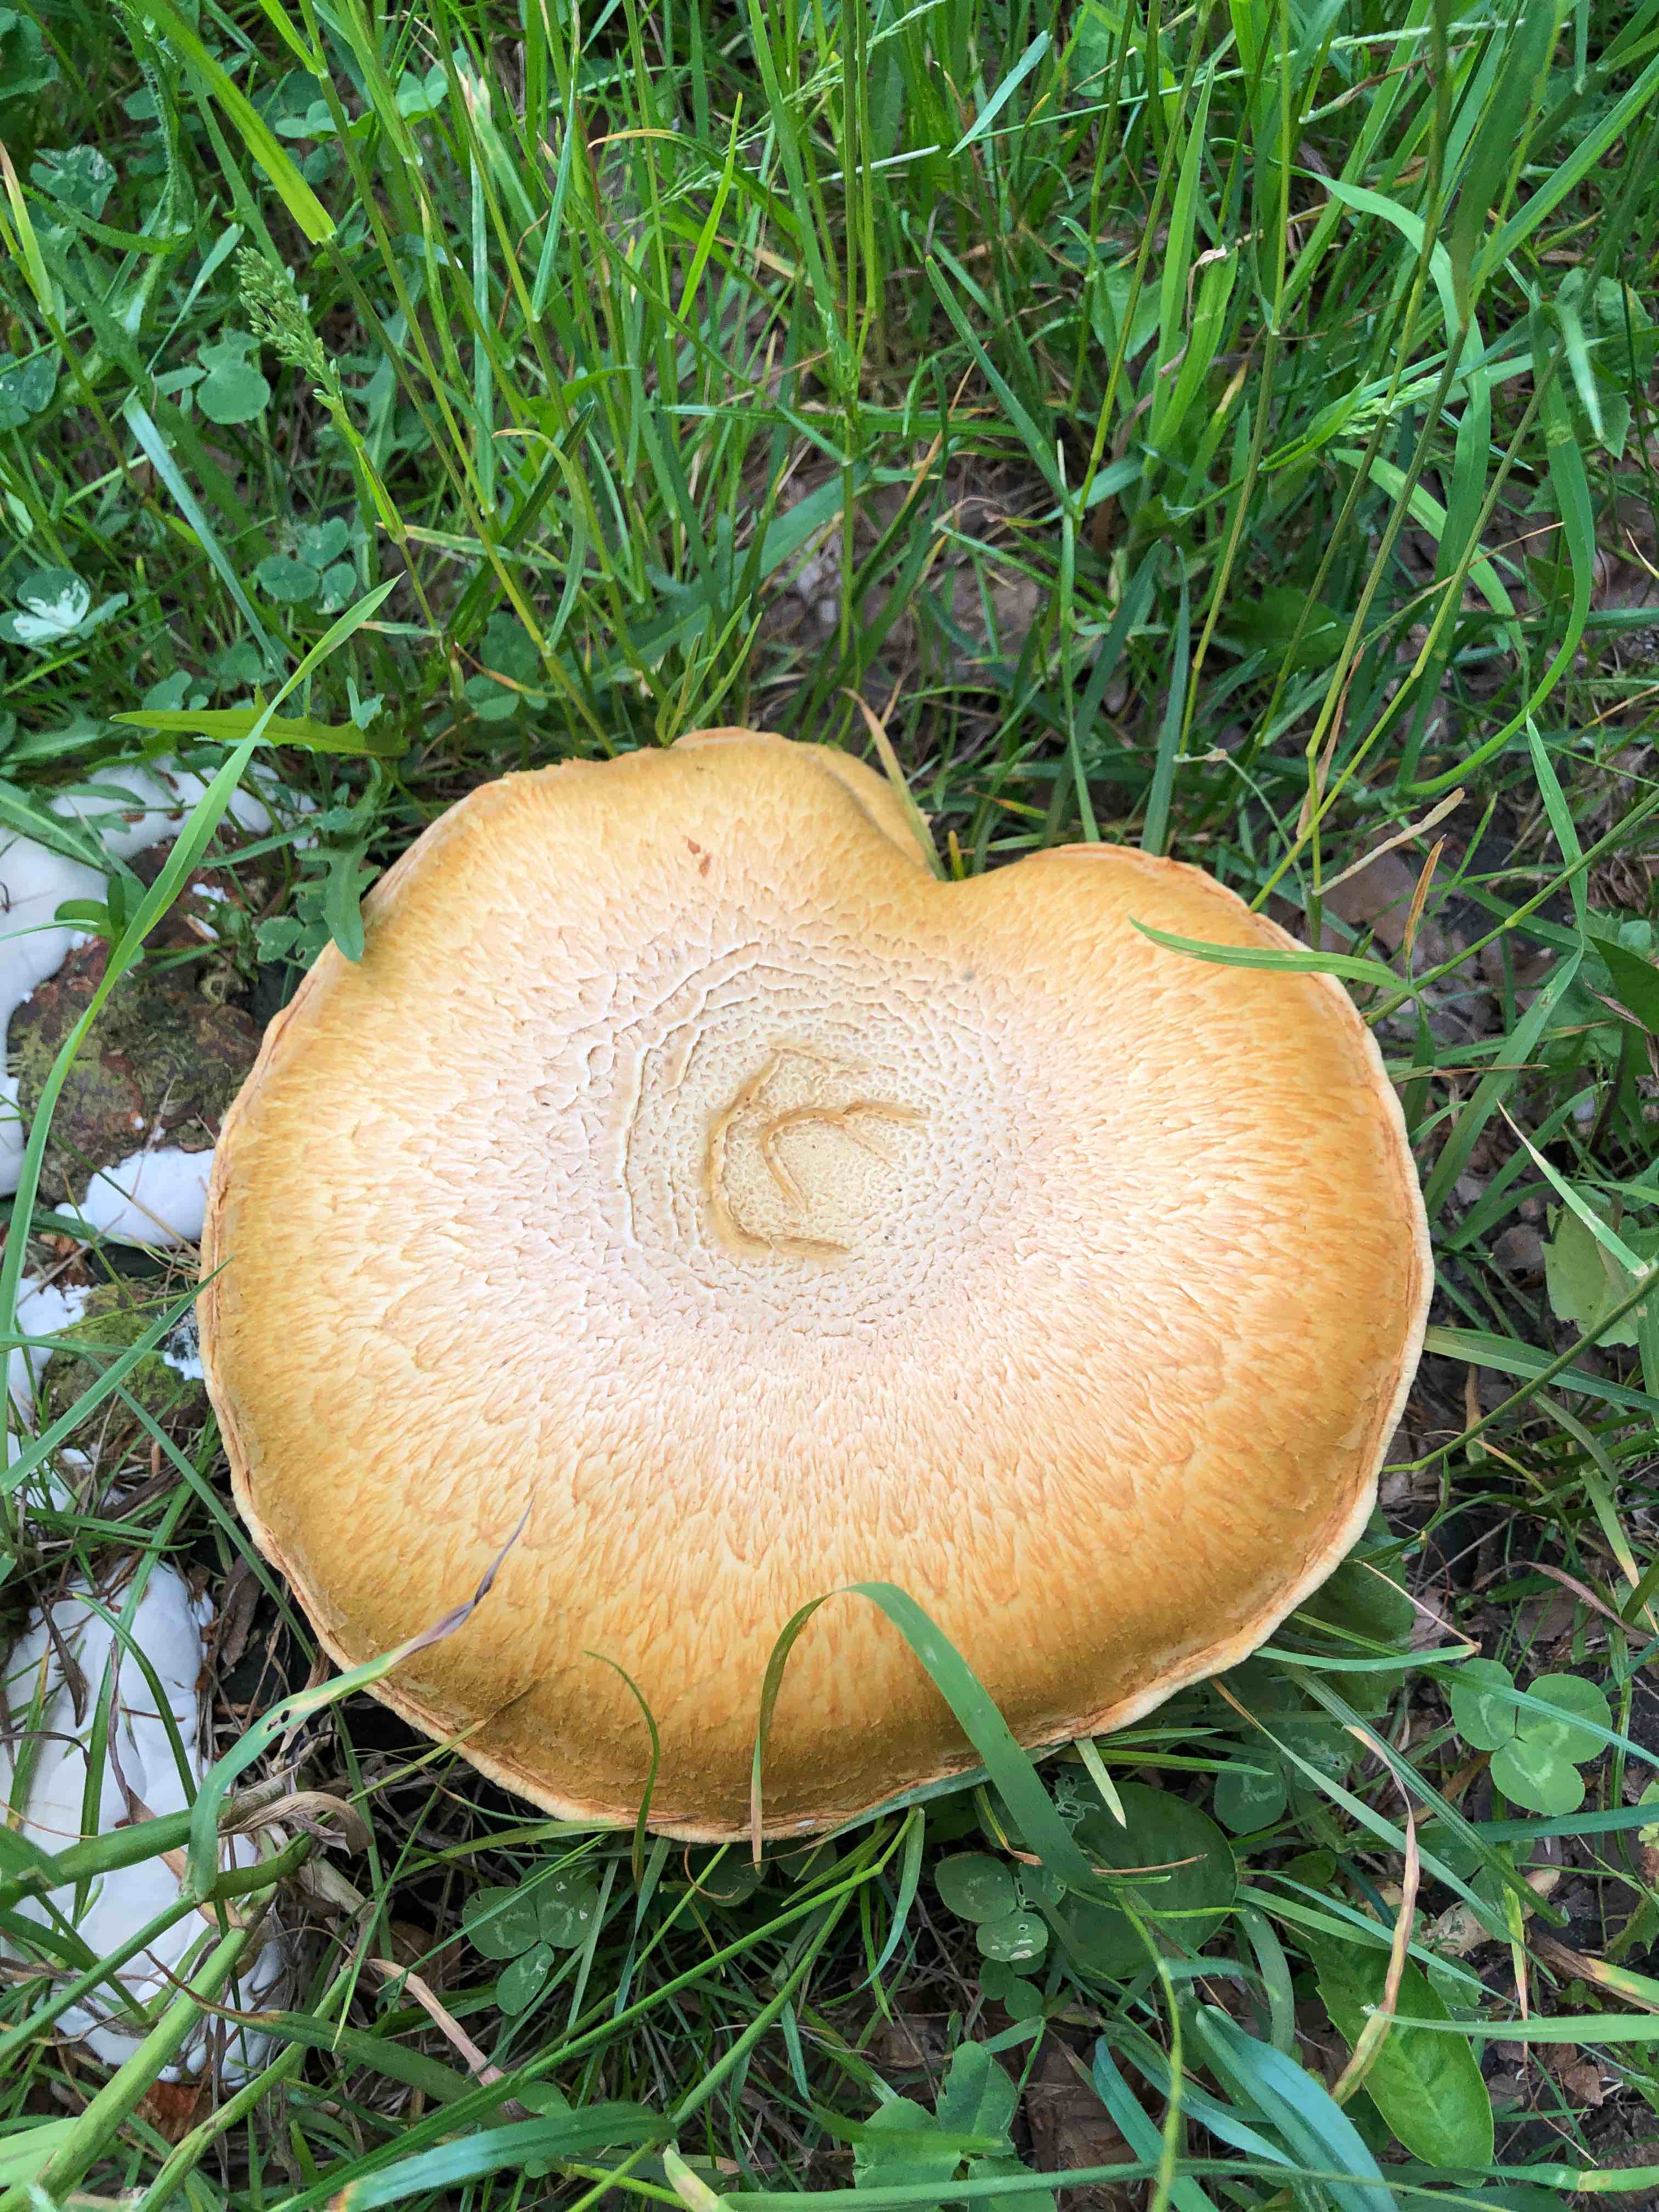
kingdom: Fungi
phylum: Basidiomycota
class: Agaricomycetes
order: Agaricales
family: Hymenogastraceae
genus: Gymnopilus
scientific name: Gymnopilus spectabilis
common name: fibret flammehat
